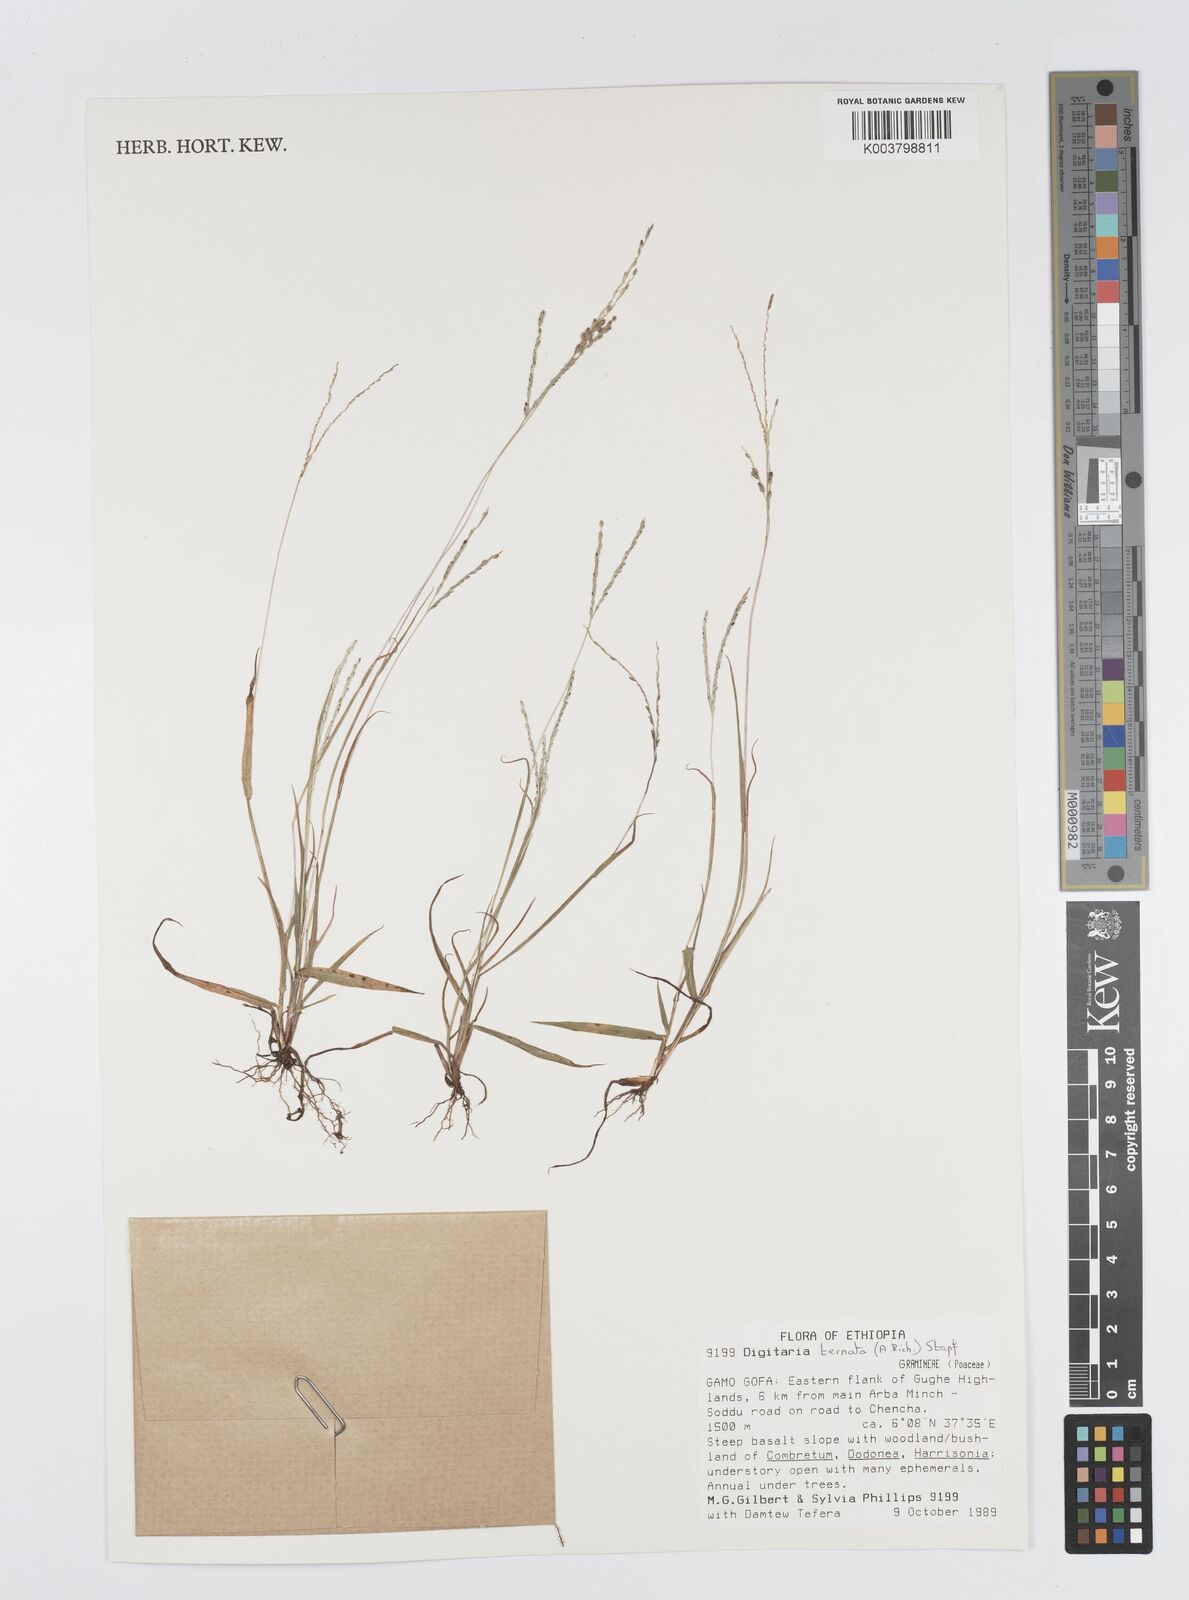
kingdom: Plantae
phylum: Tracheophyta
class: Liliopsida
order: Poales
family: Poaceae
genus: Digitaria
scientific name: Digitaria ternata
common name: Blackseed crabgrass
